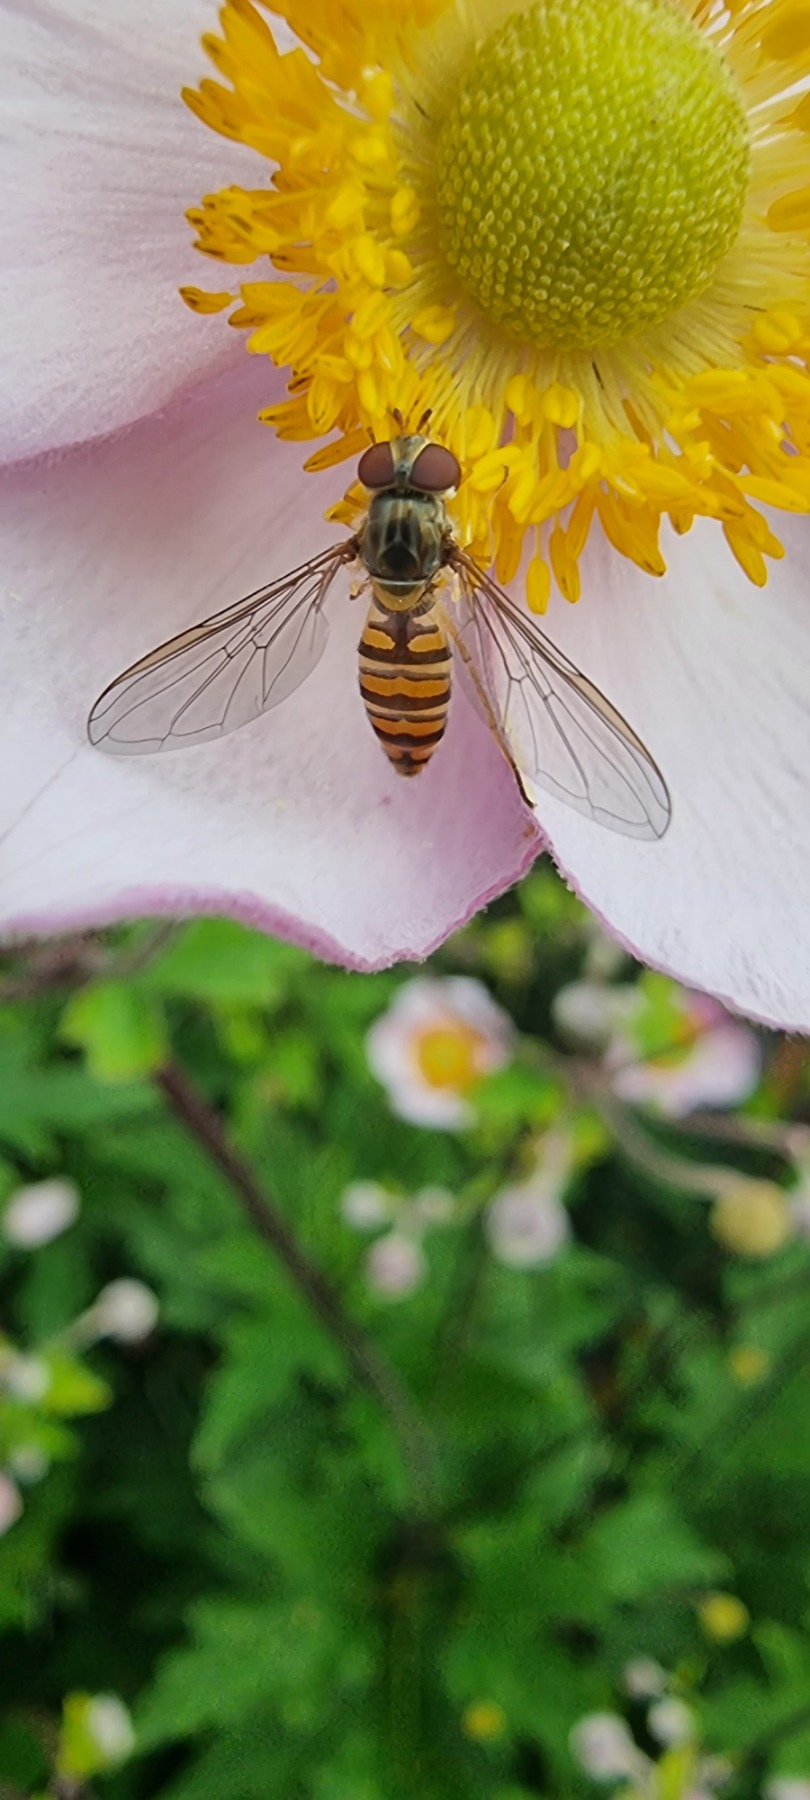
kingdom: Animalia
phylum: Arthropoda
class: Insecta
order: Diptera
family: Syrphidae
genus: Episyrphus
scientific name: Episyrphus balteatus
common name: Dobbeltbåndet svirreflue
